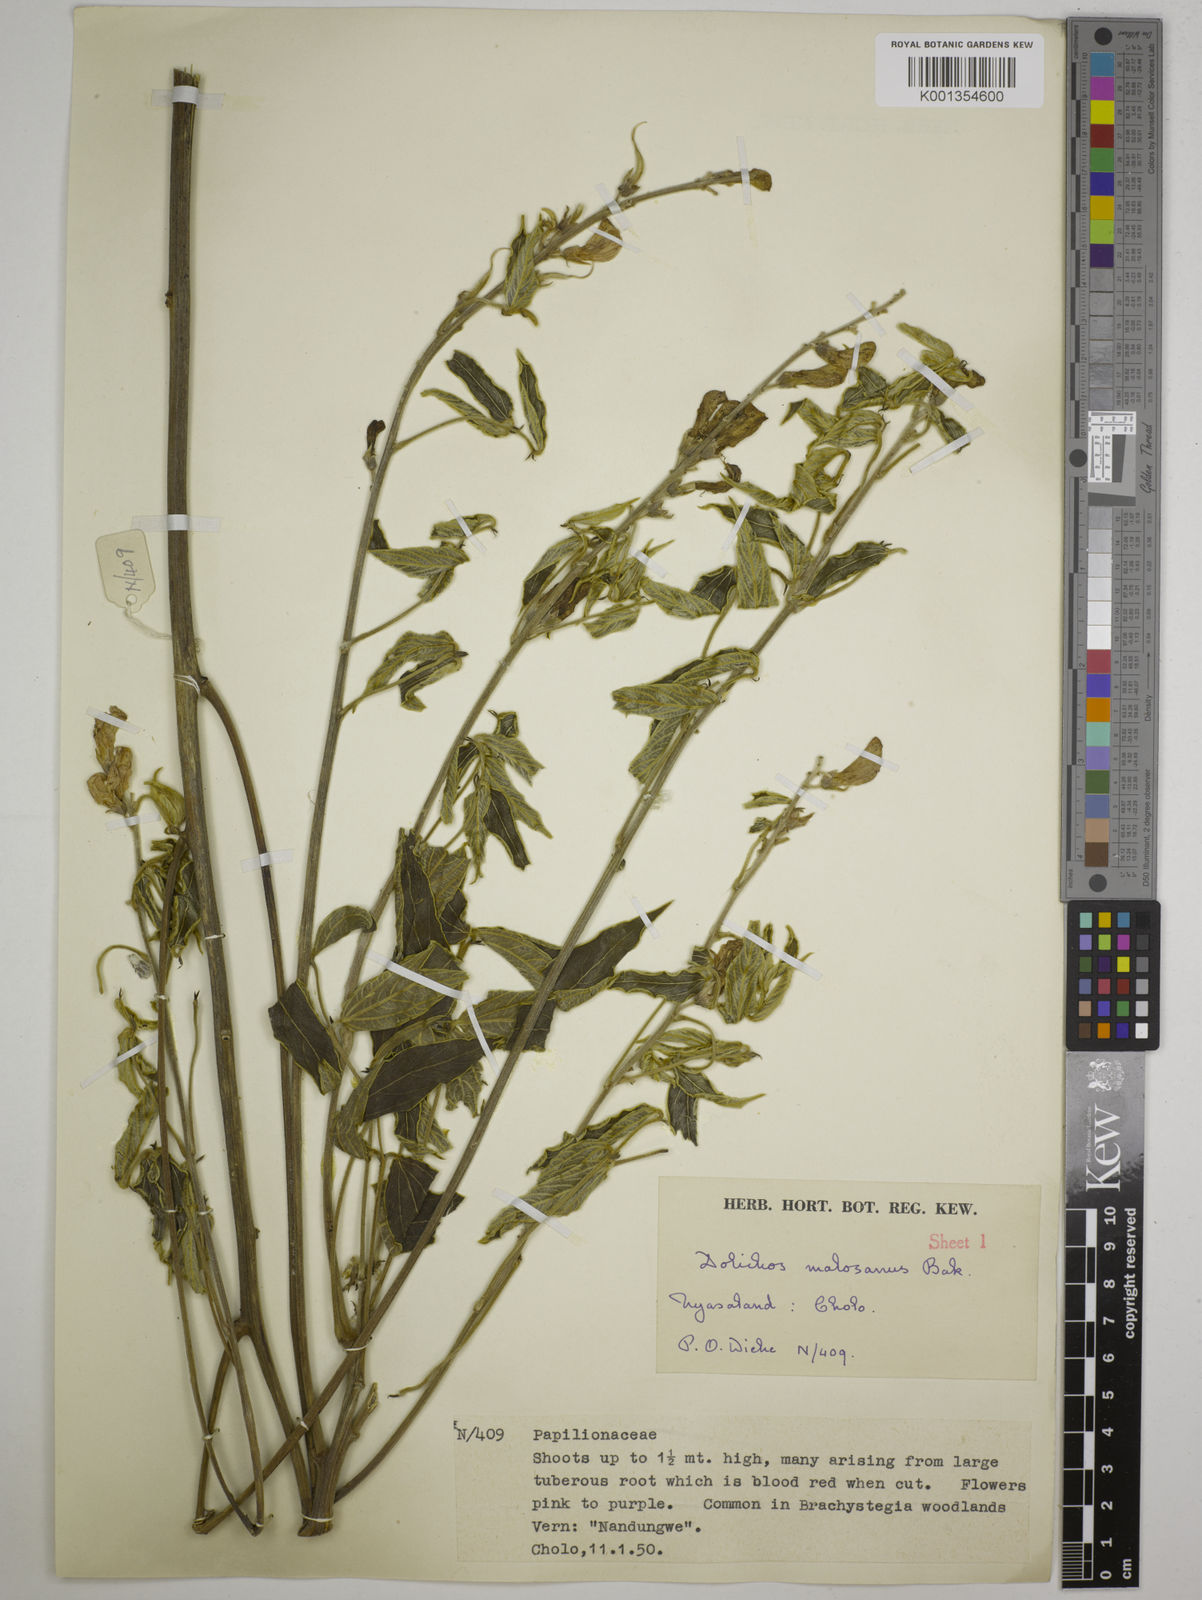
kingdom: Plantae
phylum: Tracheophyta
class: Magnoliopsida
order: Fabales
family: Fabaceae
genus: Dolichos
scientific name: Dolichos kilimandscharicus
